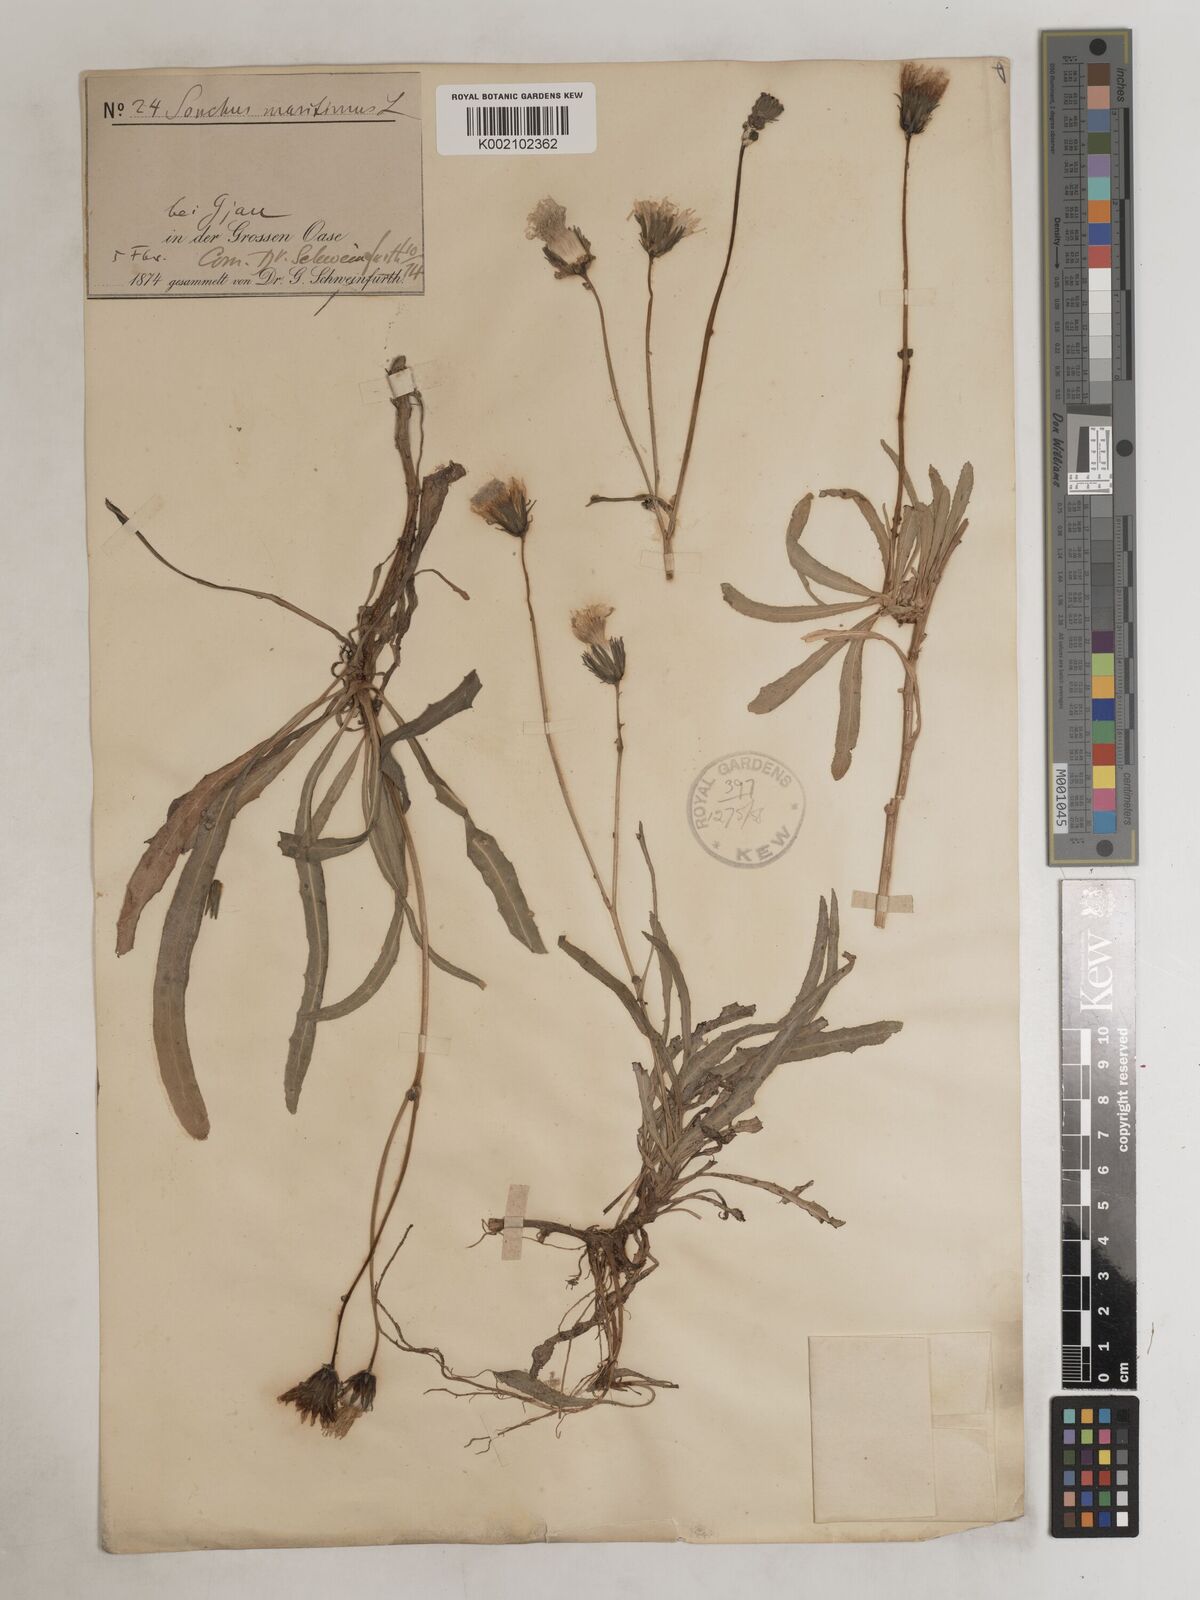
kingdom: Plantae
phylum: Tracheophyta
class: Magnoliopsida
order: Asterales
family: Asteraceae
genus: Sonchus
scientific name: Sonchus maritimus
